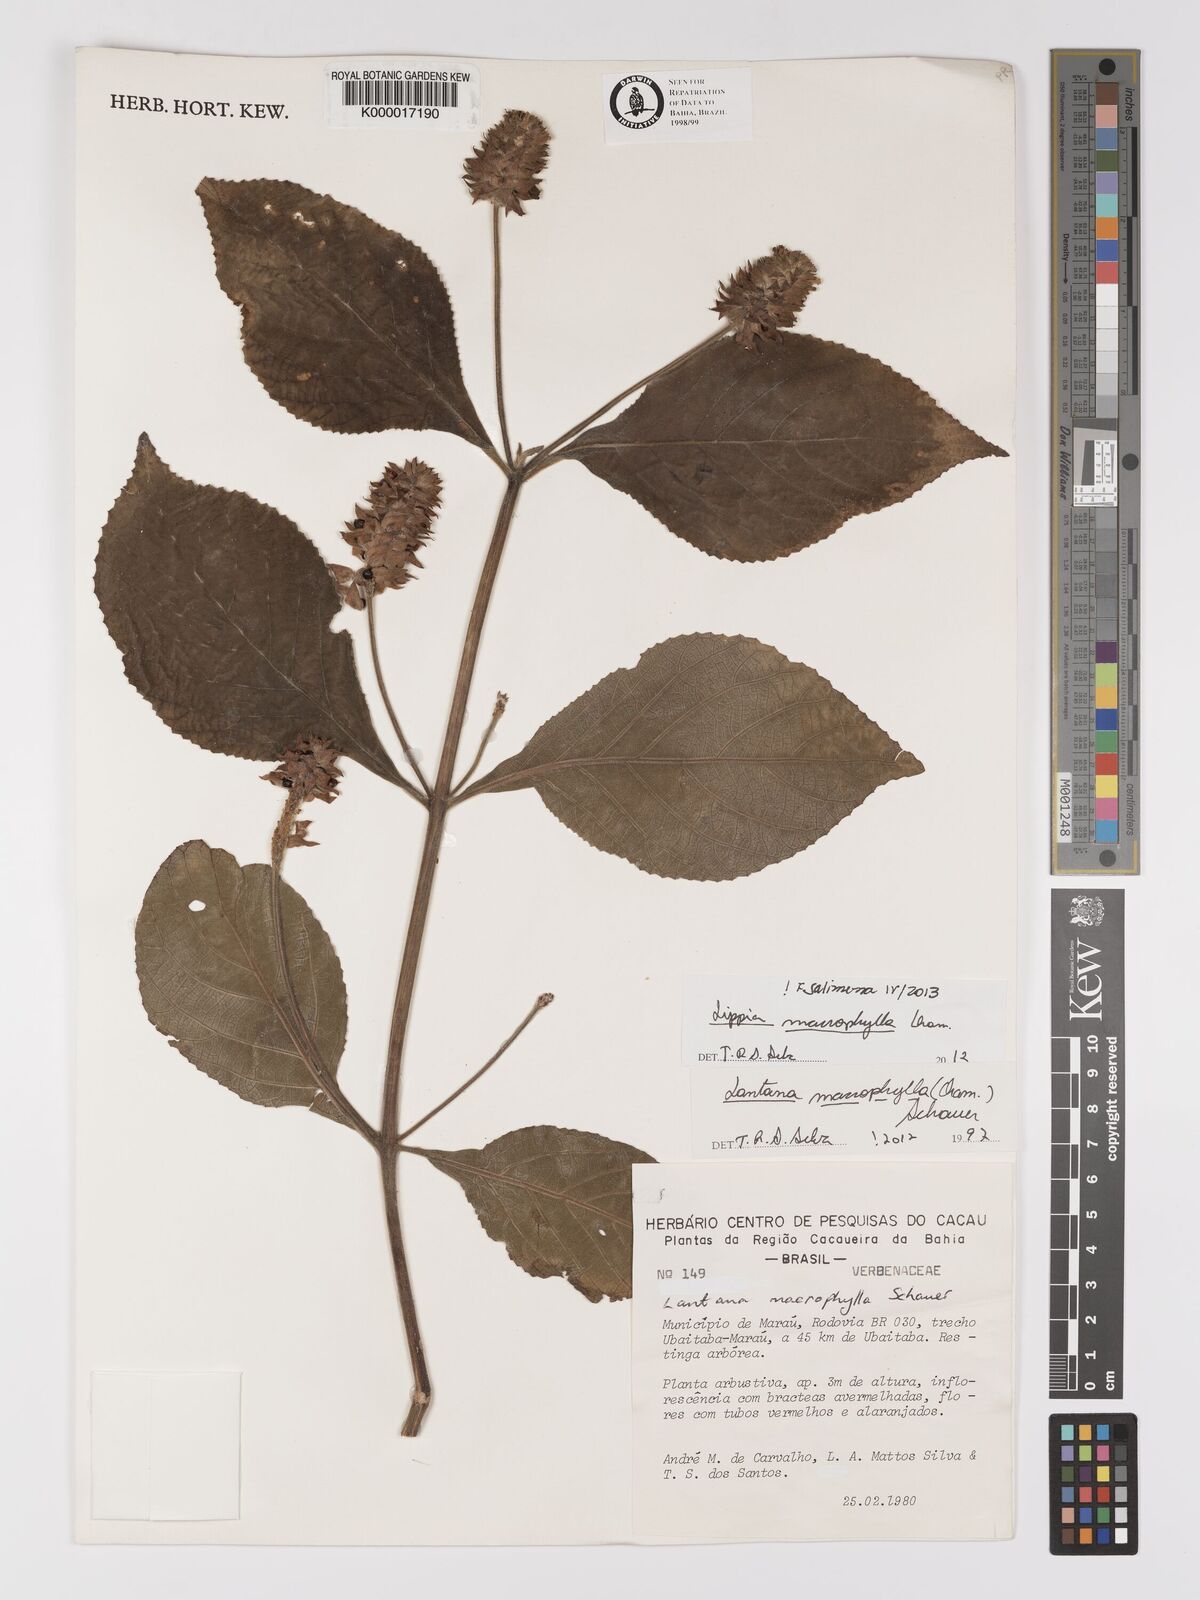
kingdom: Plantae
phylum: Tracheophyta
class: Magnoliopsida
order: Lamiales
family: Verbenaceae
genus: Lippia
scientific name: Lippia macrophylla
